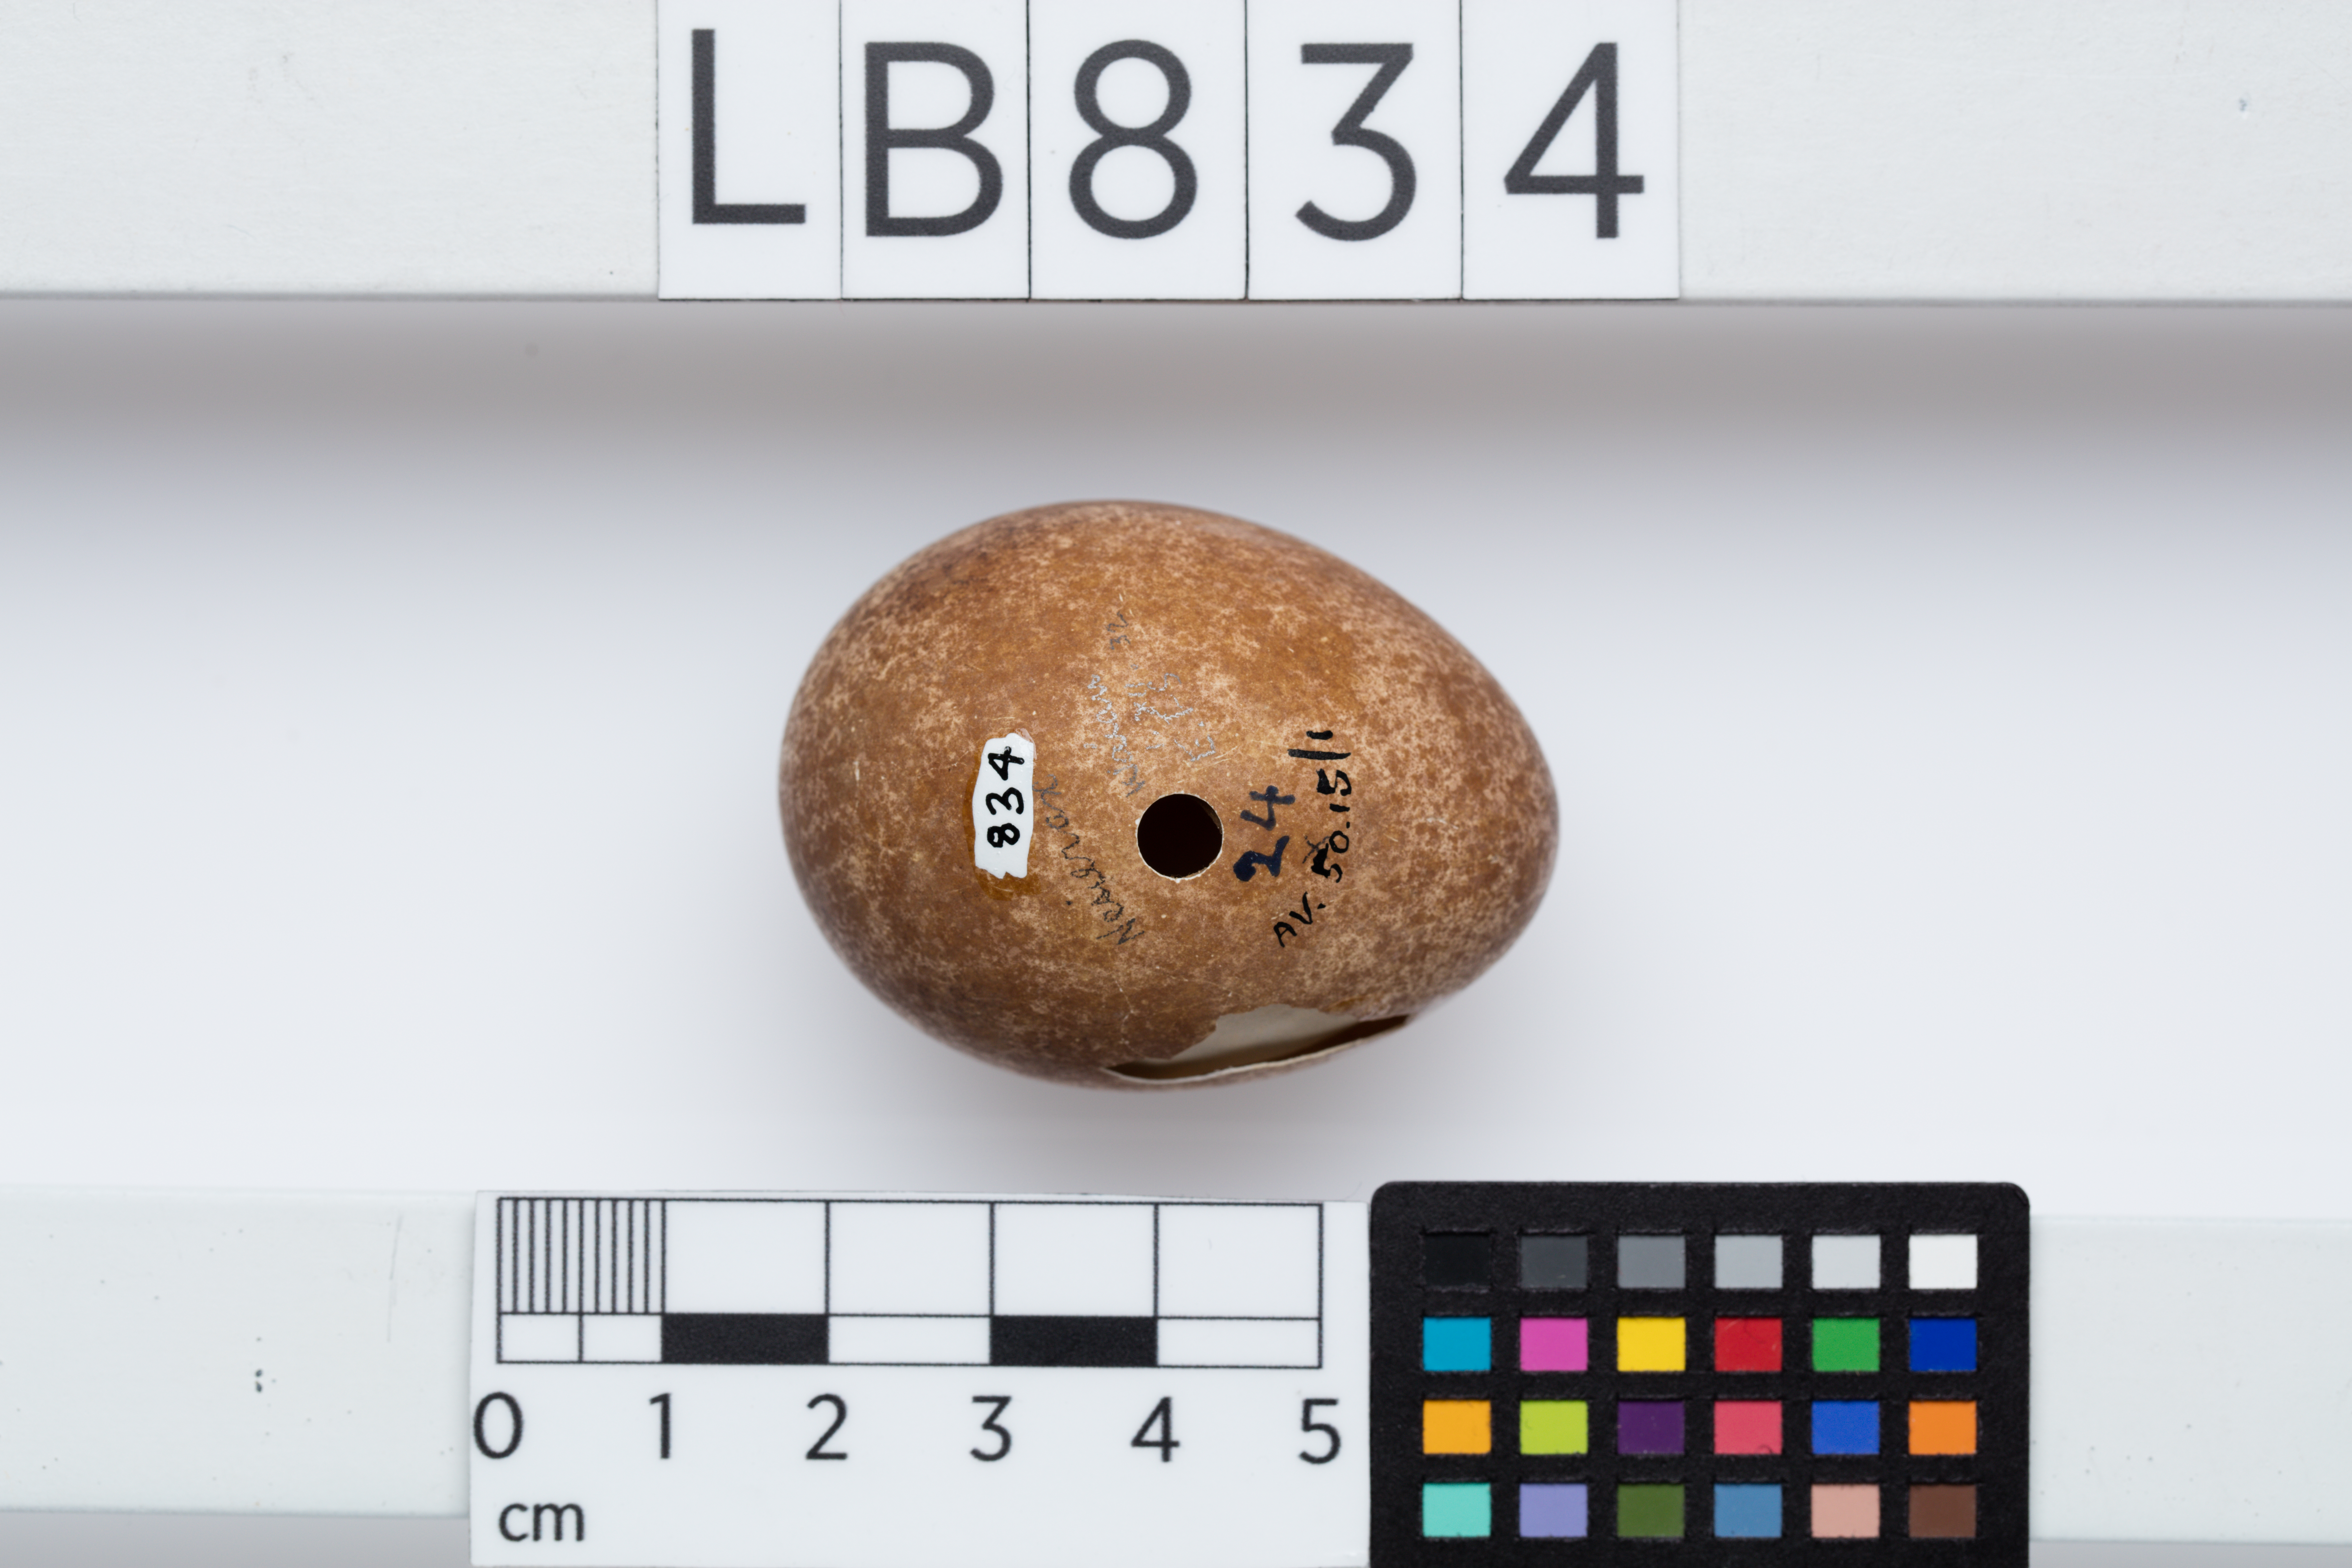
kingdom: Animalia
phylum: Chordata
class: Aves
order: Falconiformes
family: Falconidae
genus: Falco
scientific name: Falco novaeseelandiae
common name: New zealand falcon
